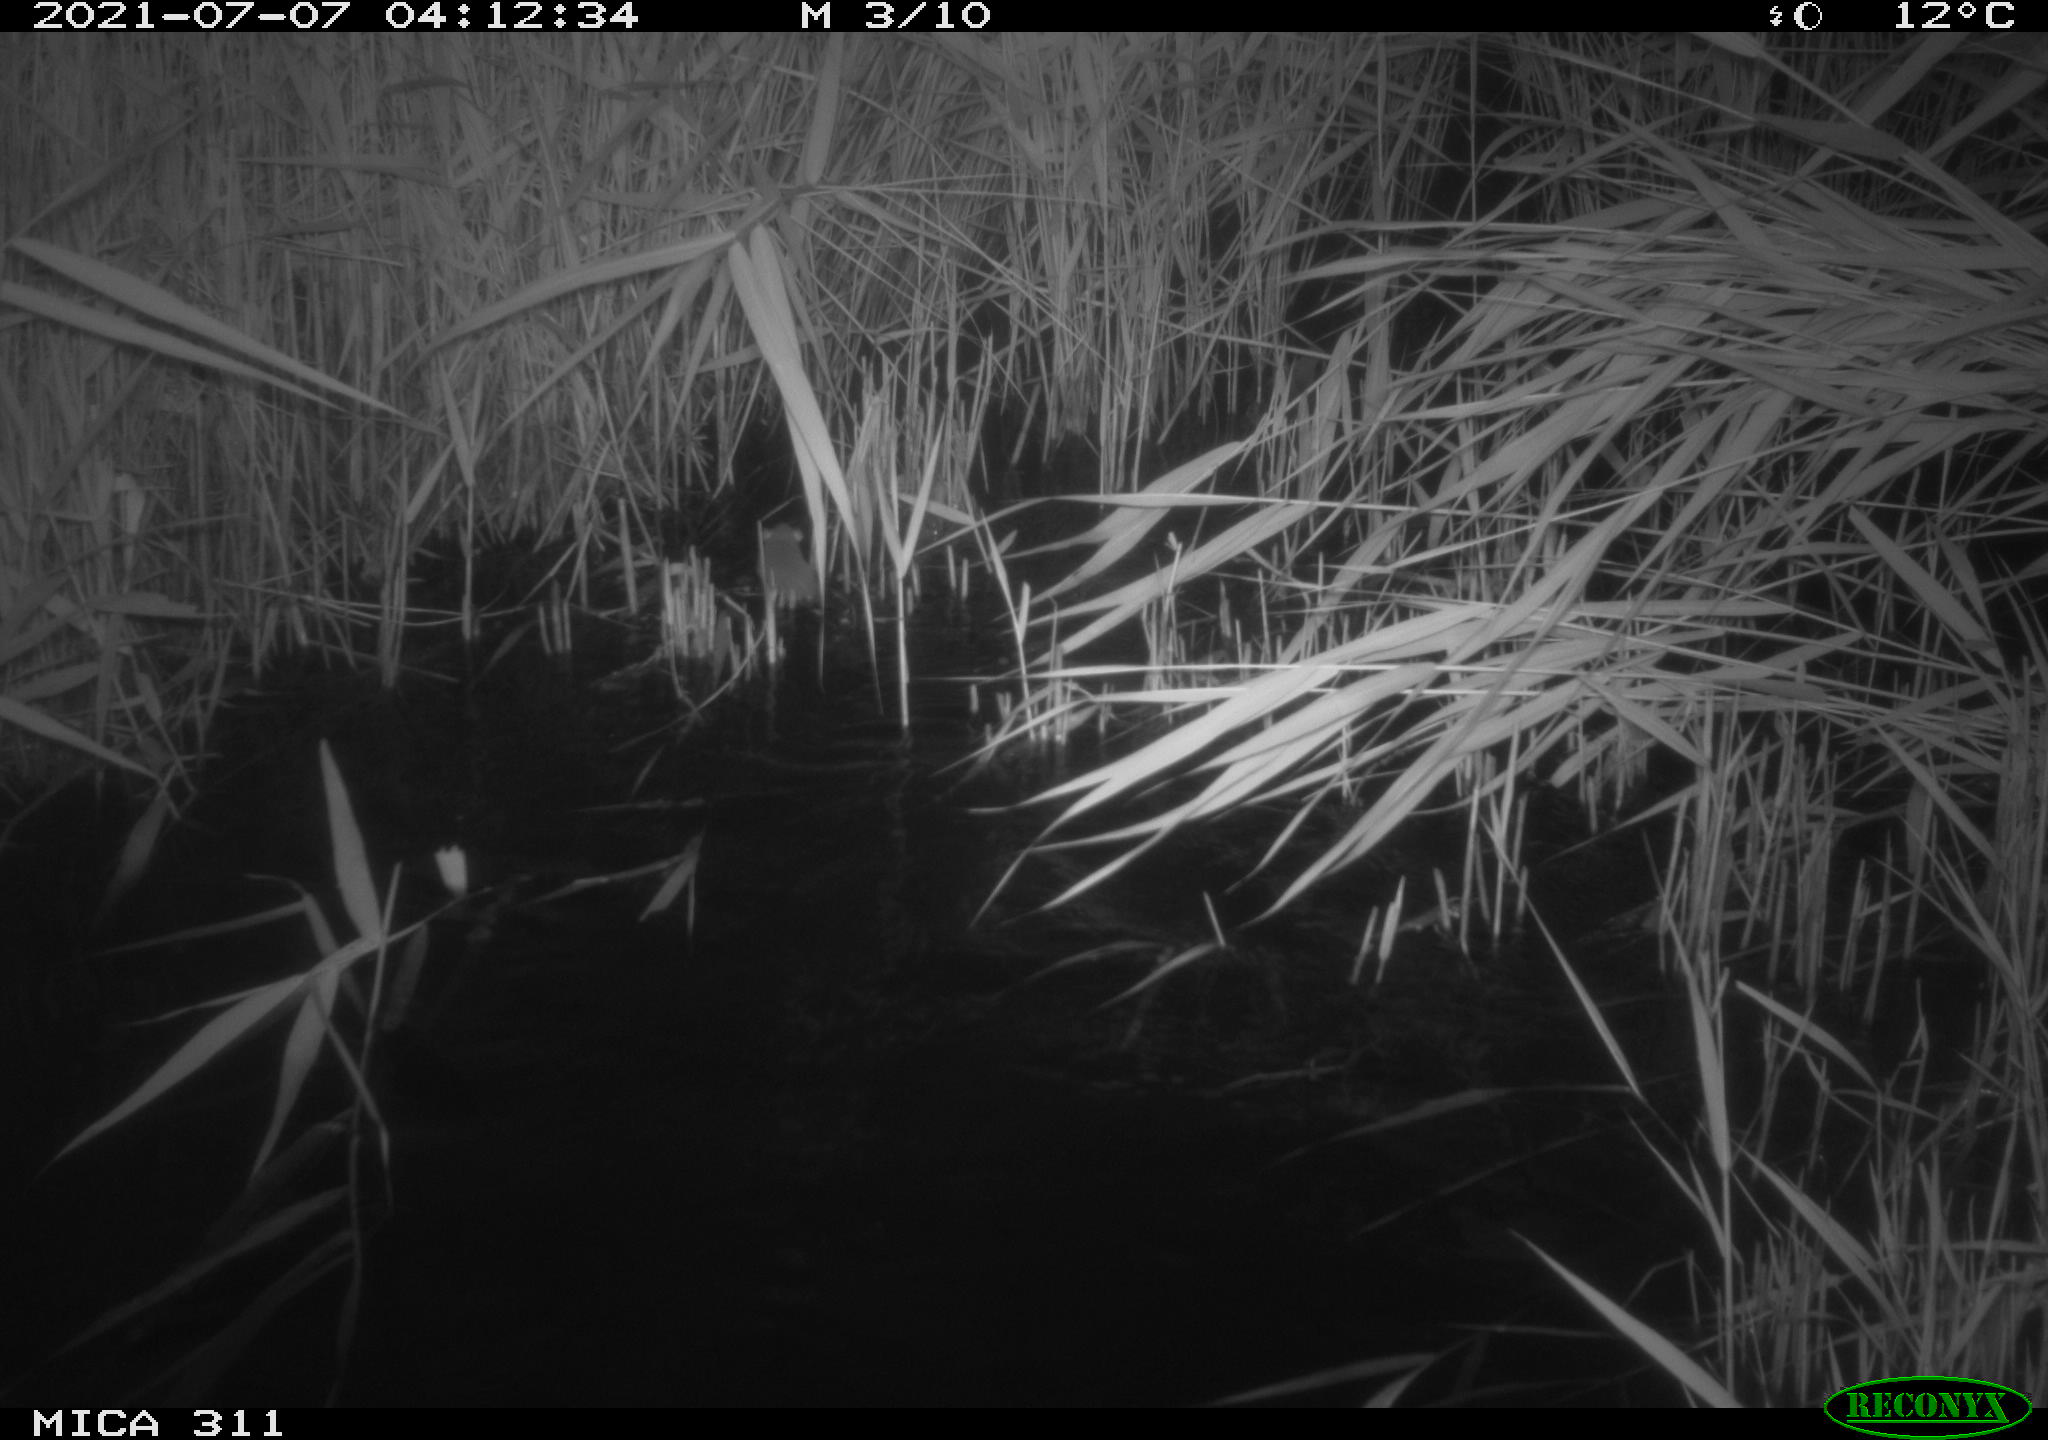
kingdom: Animalia
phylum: Chordata
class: Mammalia
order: Rodentia
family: Muridae
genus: Rattus
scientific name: Rattus norvegicus
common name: Brown rat
